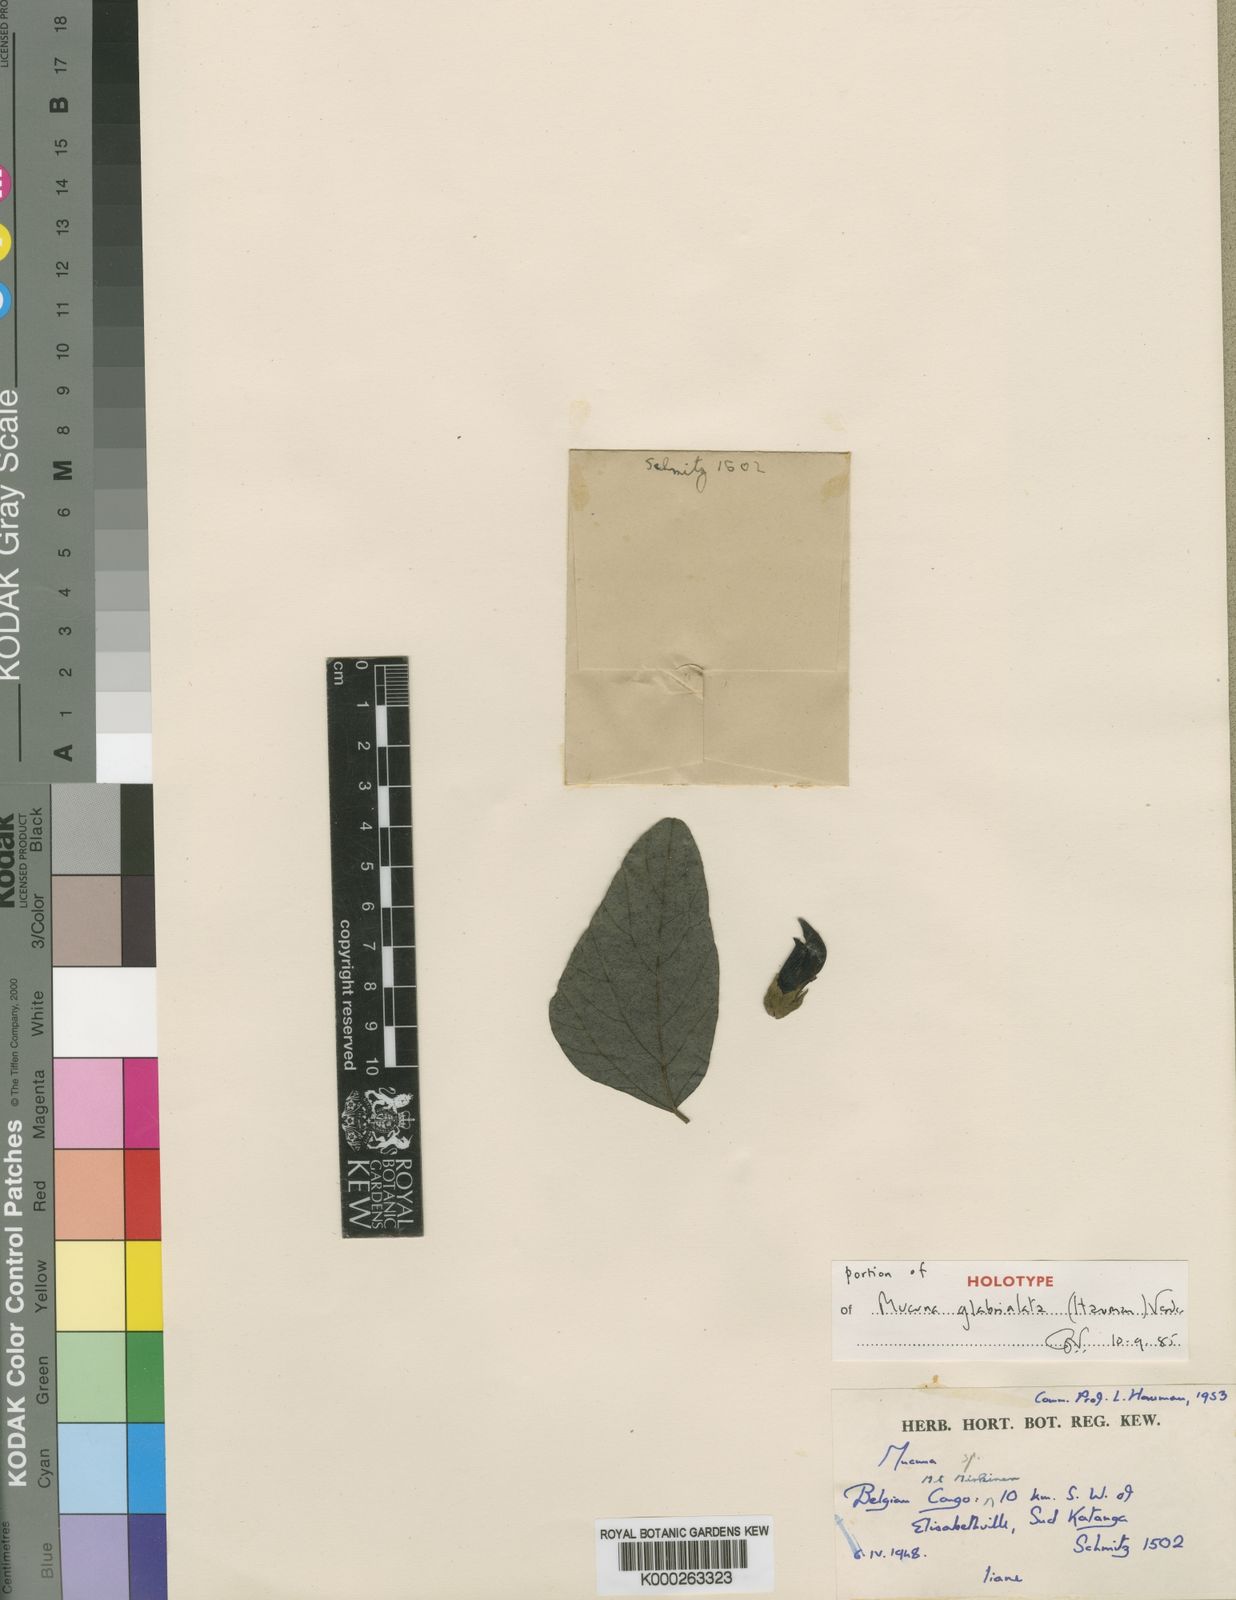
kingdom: Plantae
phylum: Tracheophyta
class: Magnoliopsida
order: Fabales
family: Fabaceae
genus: Mucuna
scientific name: Mucuna glabrialata
